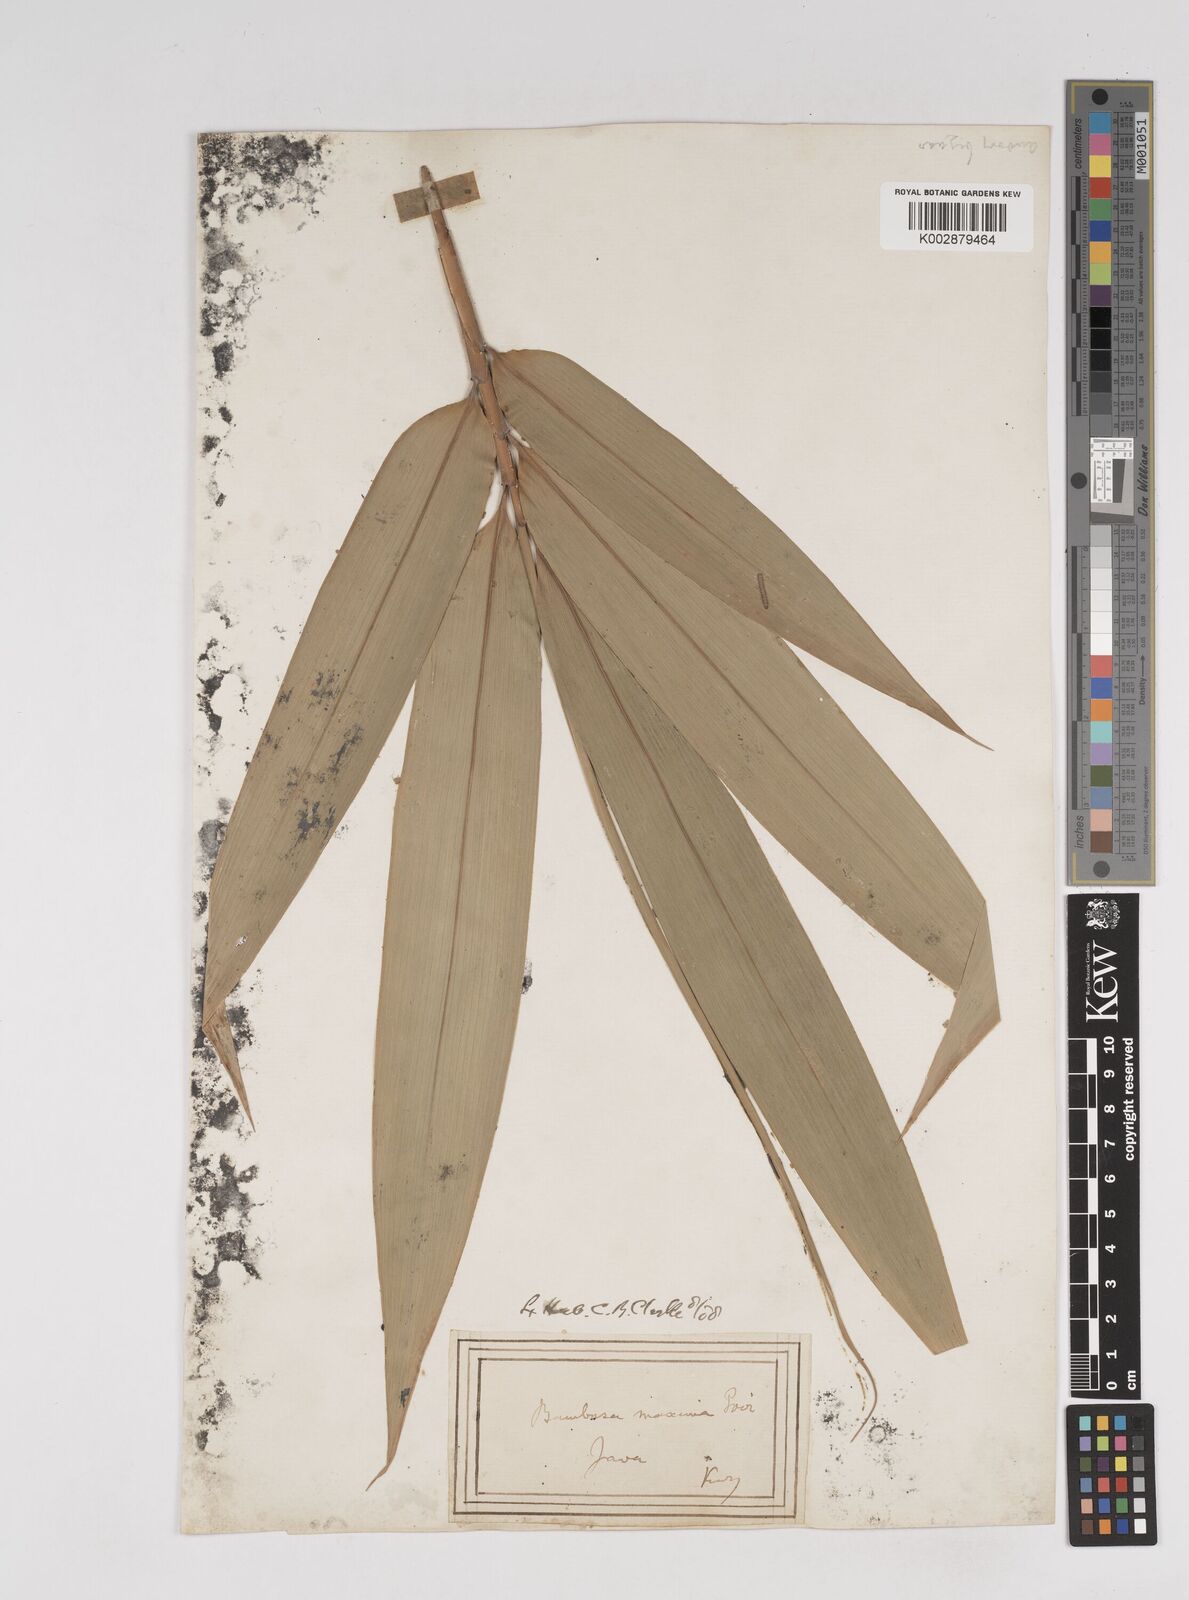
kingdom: Plantae
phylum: Tracheophyta
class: Liliopsida
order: Poales
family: Poaceae
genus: Dendrocalamus
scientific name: Dendrocalamus hamiltonii
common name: Tama bamboo
